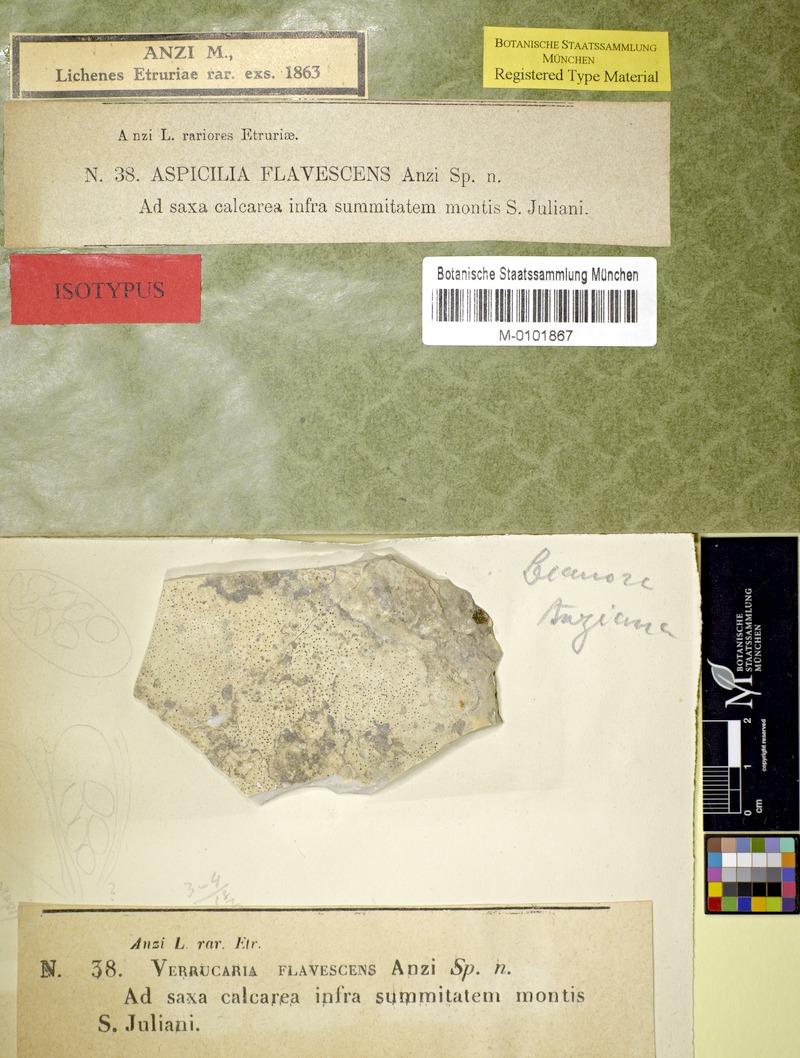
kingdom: Fungi
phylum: Ascomycota
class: Lecanoromycetes
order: Pertusariales
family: Megasporaceae
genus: Aspicilia
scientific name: Aspicilia
